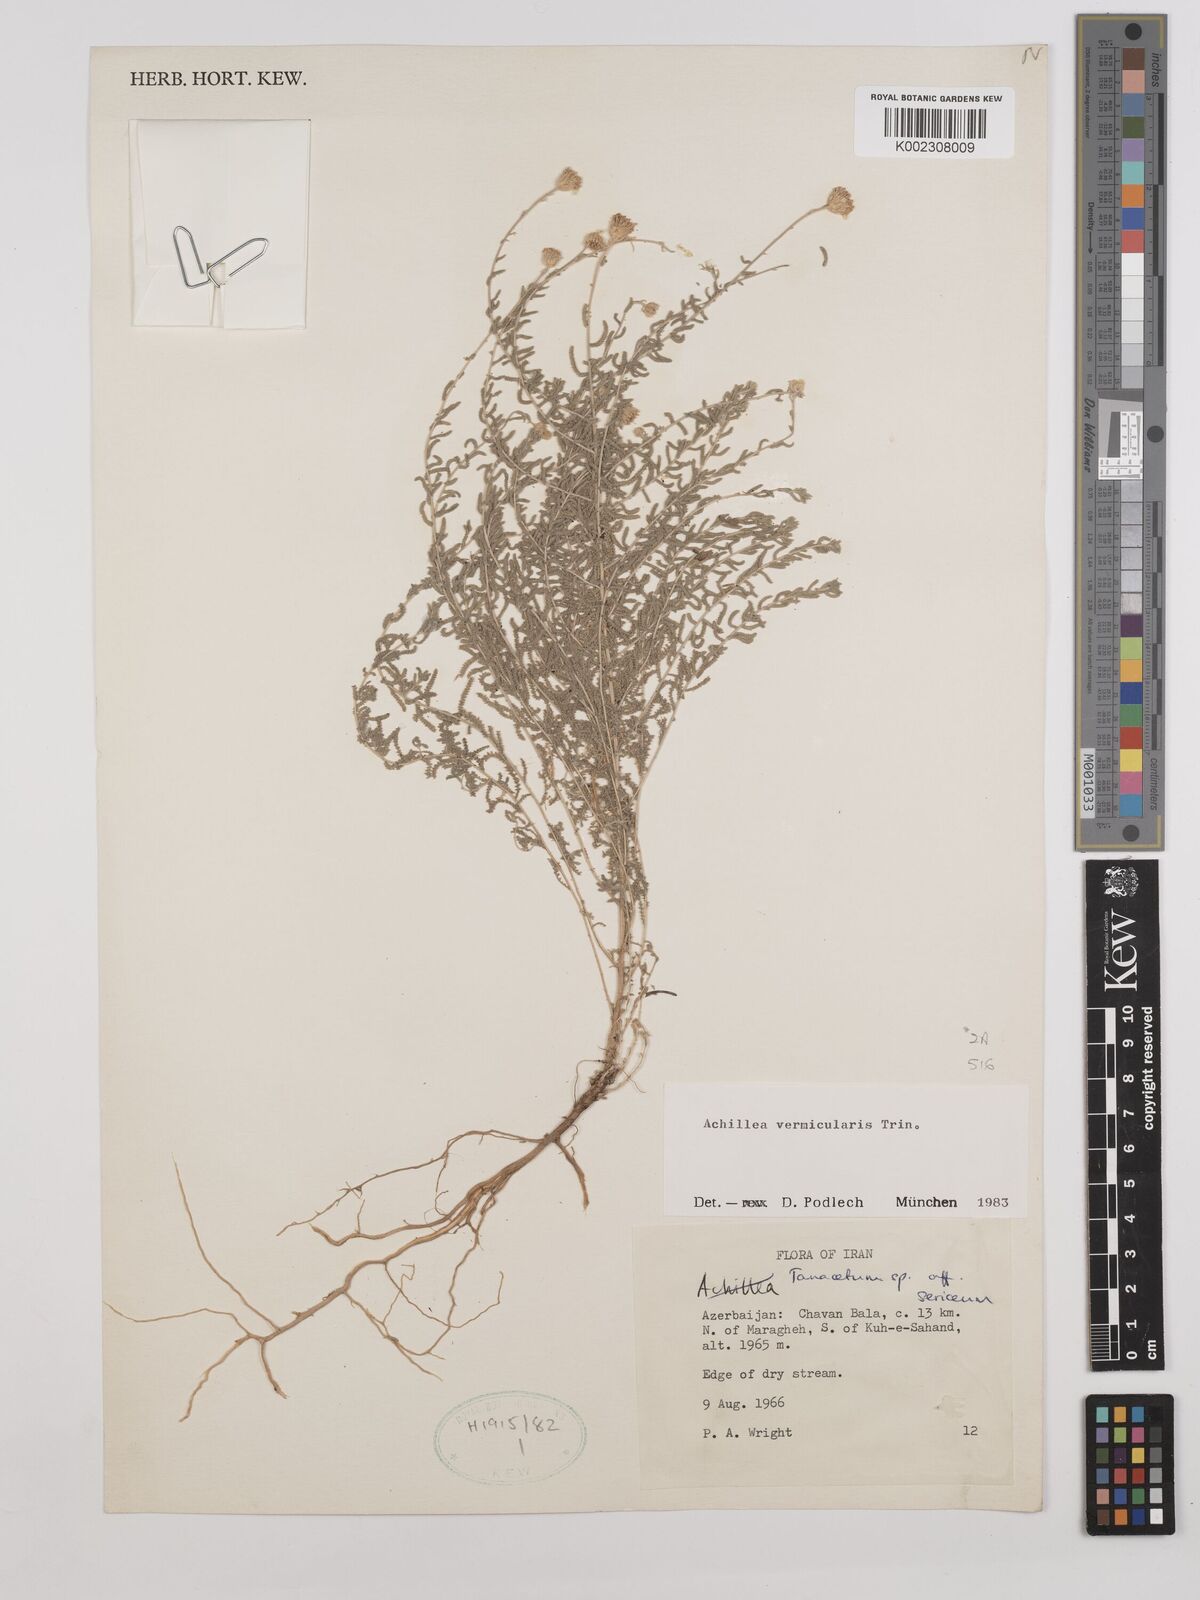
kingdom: Plantae
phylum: Tracheophyta
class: Magnoliopsida
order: Asterales
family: Asteraceae
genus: Achillea
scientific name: Achillea vermicularis
